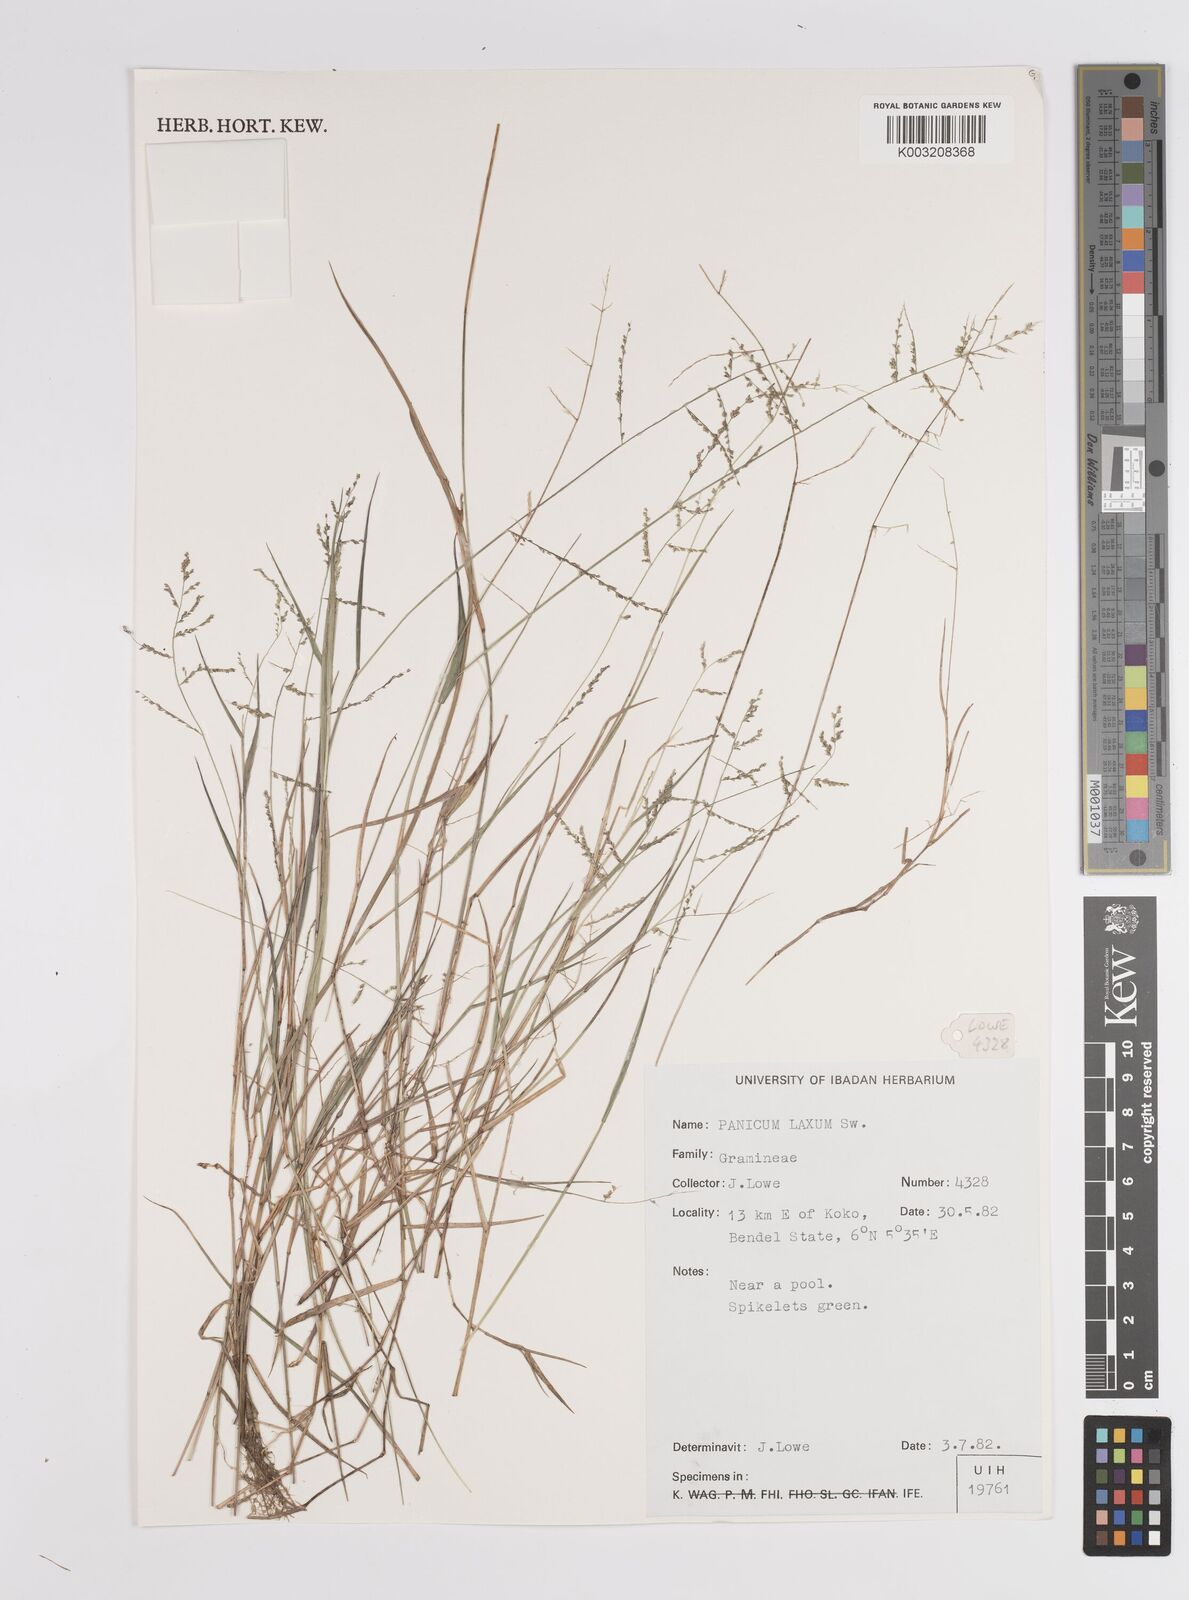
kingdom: Plantae
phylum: Tracheophyta
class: Liliopsida
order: Poales
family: Poaceae
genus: Steinchisma
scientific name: Steinchisma laxum
